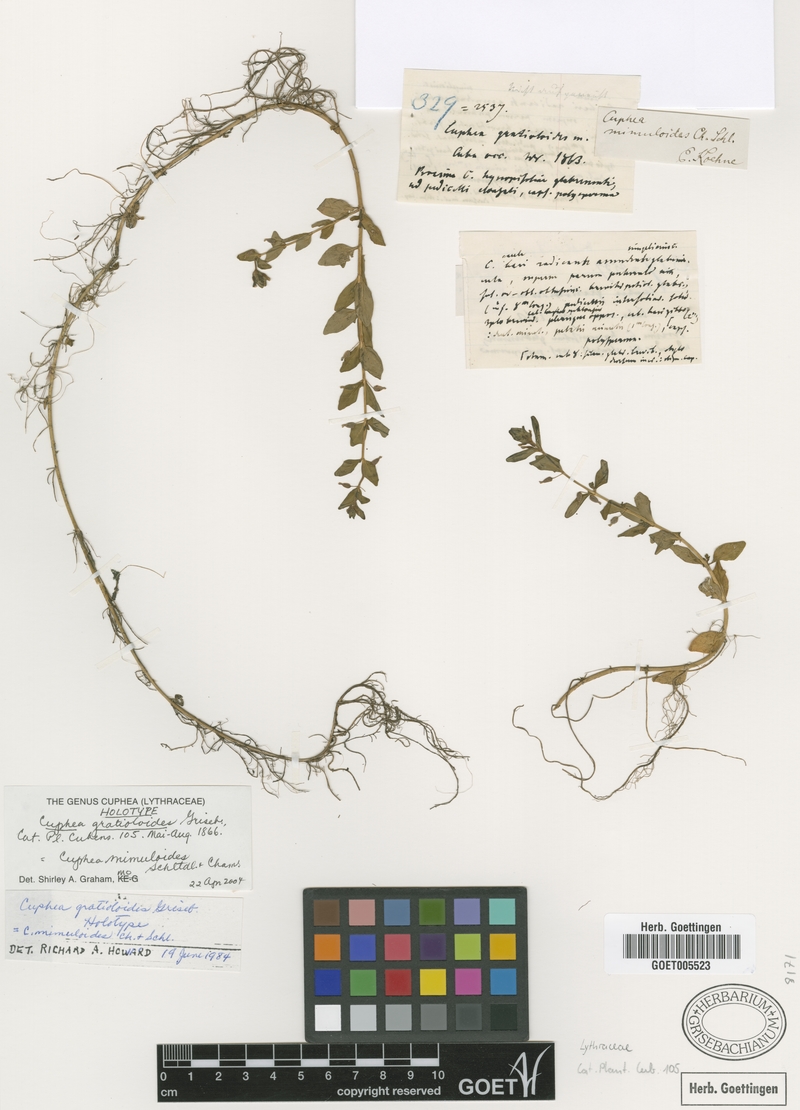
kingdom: Plantae
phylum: Tracheophyta
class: Magnoliopsida
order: Myrtales
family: Lythraceae
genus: Cuphea
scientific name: Cuphea mimuloides
